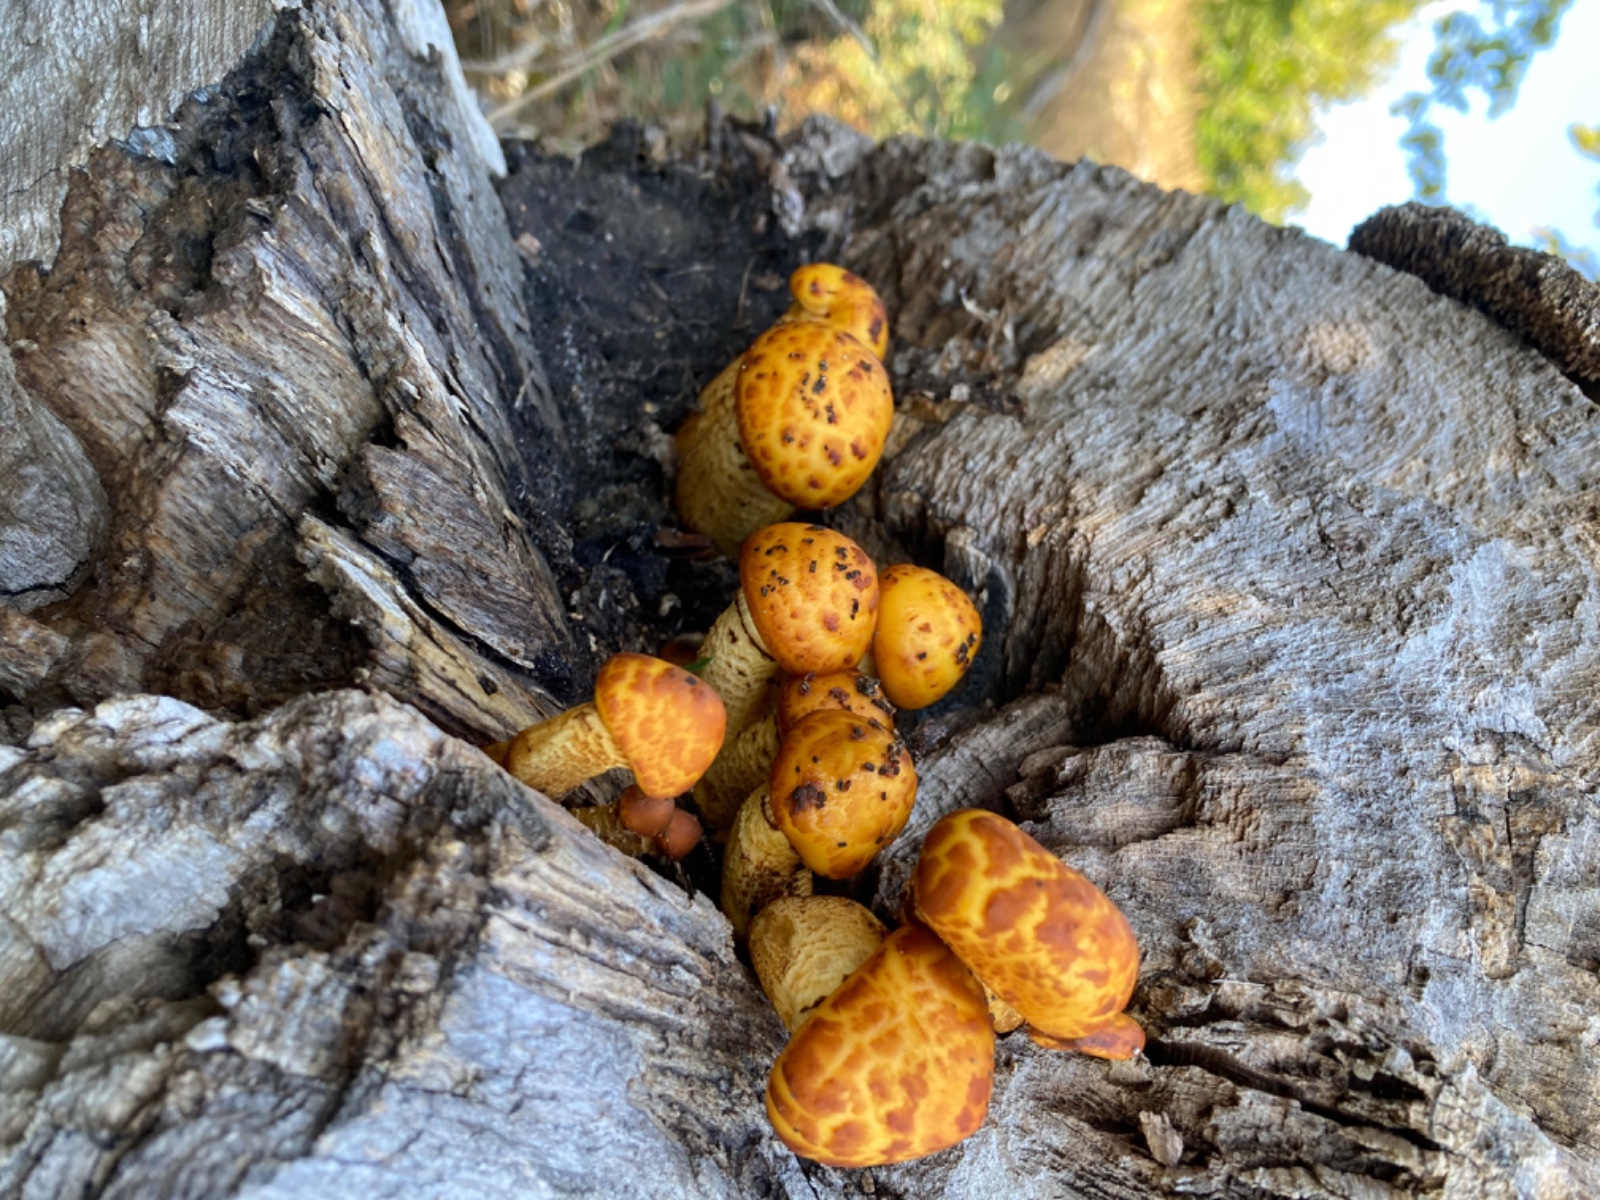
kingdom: Fungi
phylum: Basidiomycota
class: Agaricomycetes
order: Agaricales
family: Strophariaceae
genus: Pholiota
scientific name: Pholiota adiposa
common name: højtsiddende skælhat
